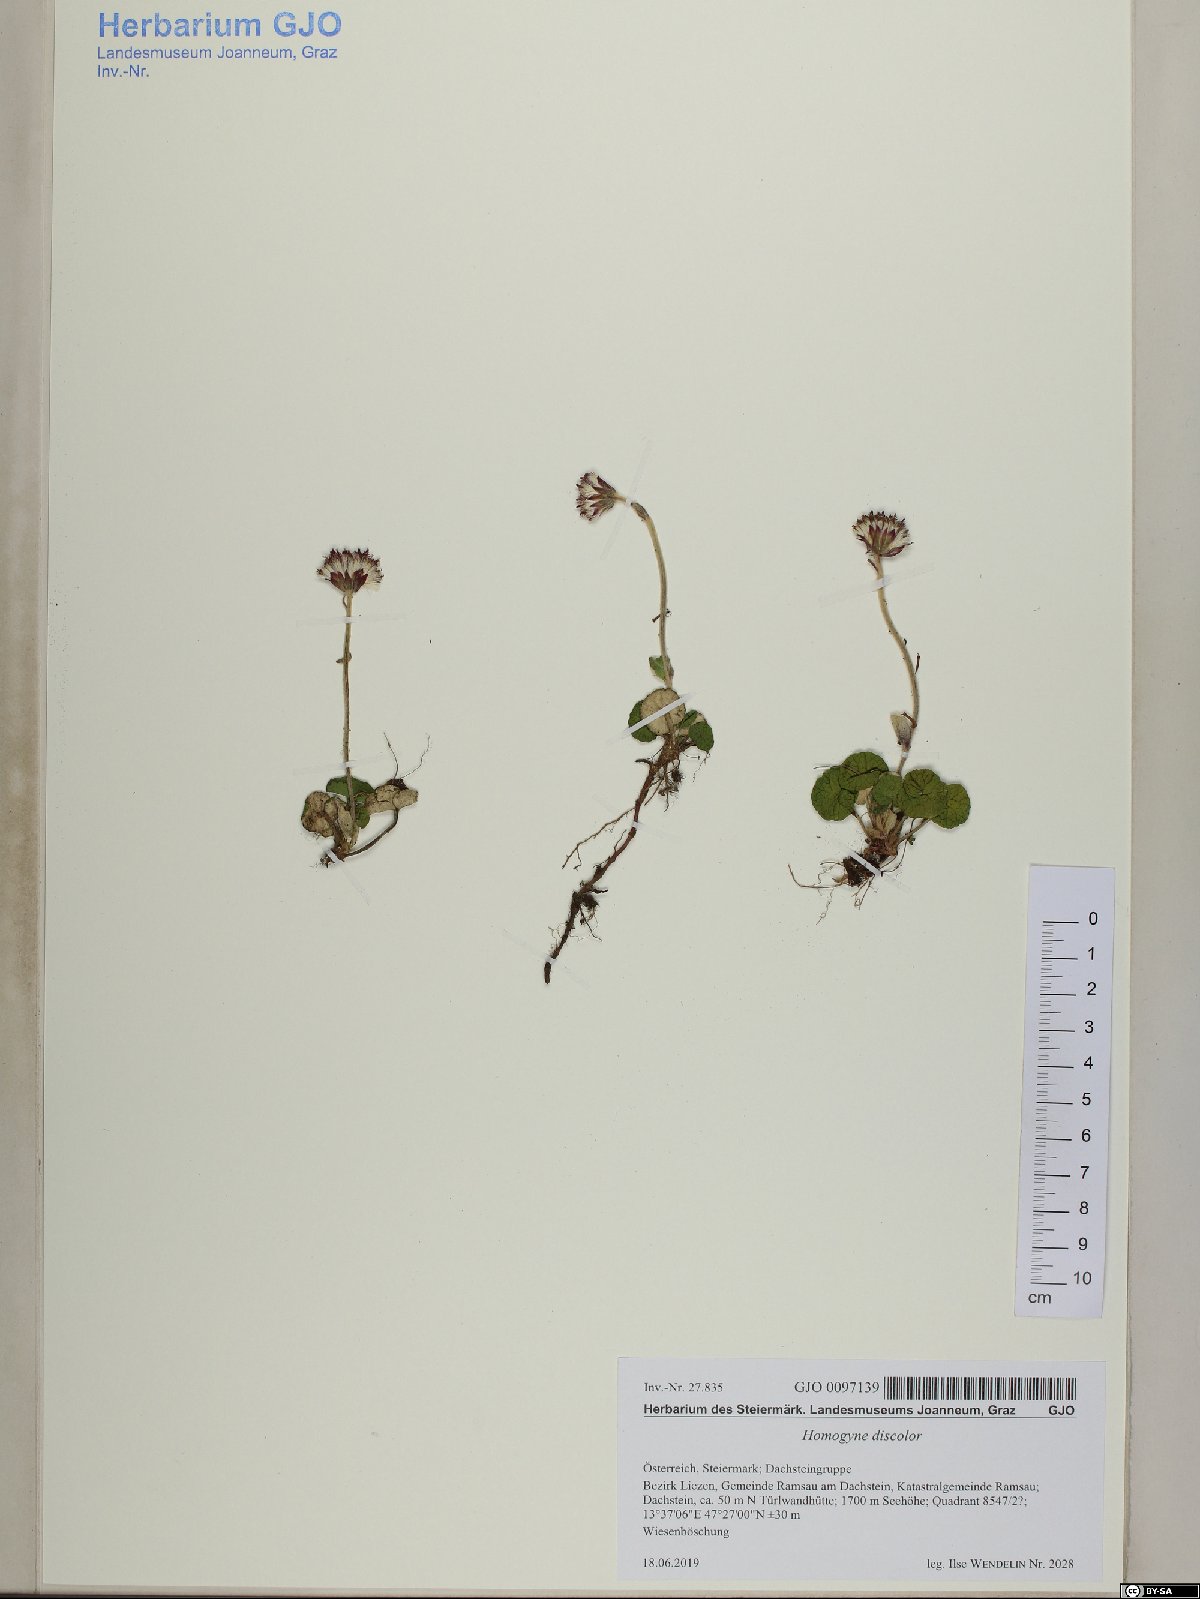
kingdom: Plantae
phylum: Tracheophyta
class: Magnoliopsida
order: Asterales
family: Asteraceae
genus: Homogyne
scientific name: Homogyne discolor
